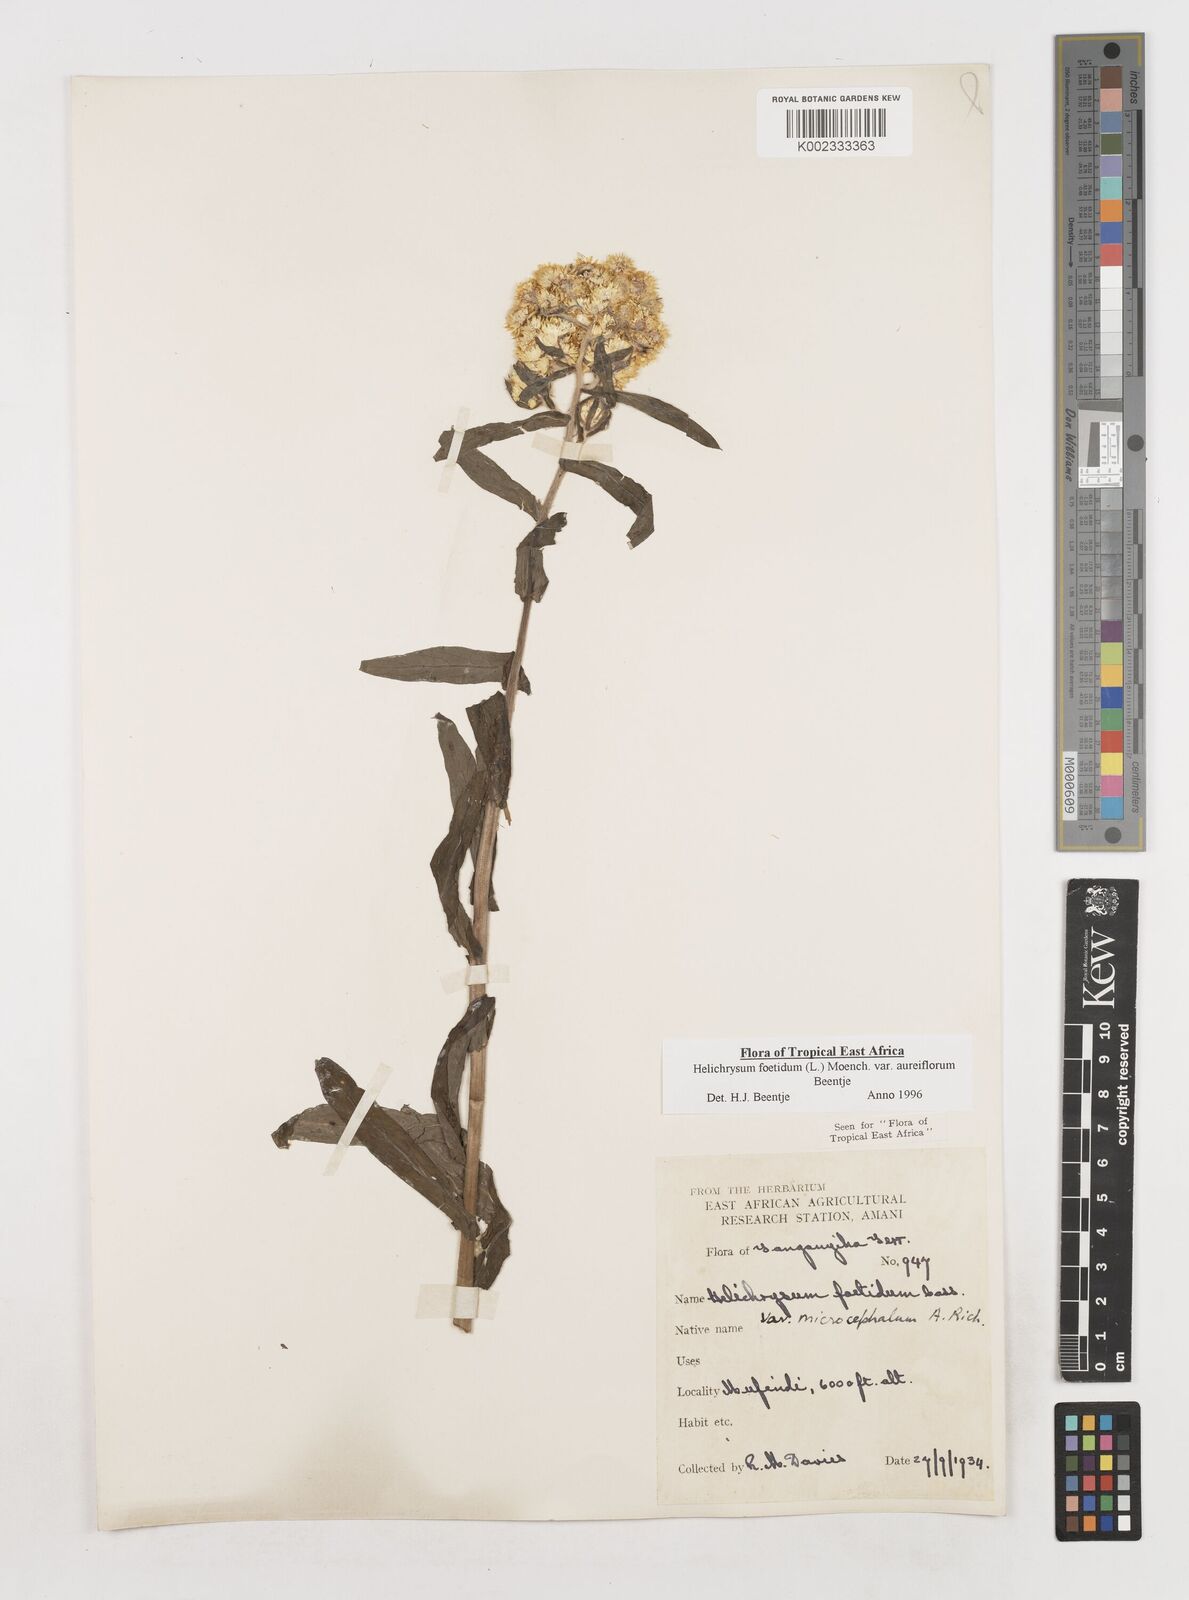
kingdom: Plantae
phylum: Tracheophyta
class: Magnoliopsida
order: Asterales
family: Asteraceae
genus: Helichrysum
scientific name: Helichrysum foetidum
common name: Stinking everlasting
